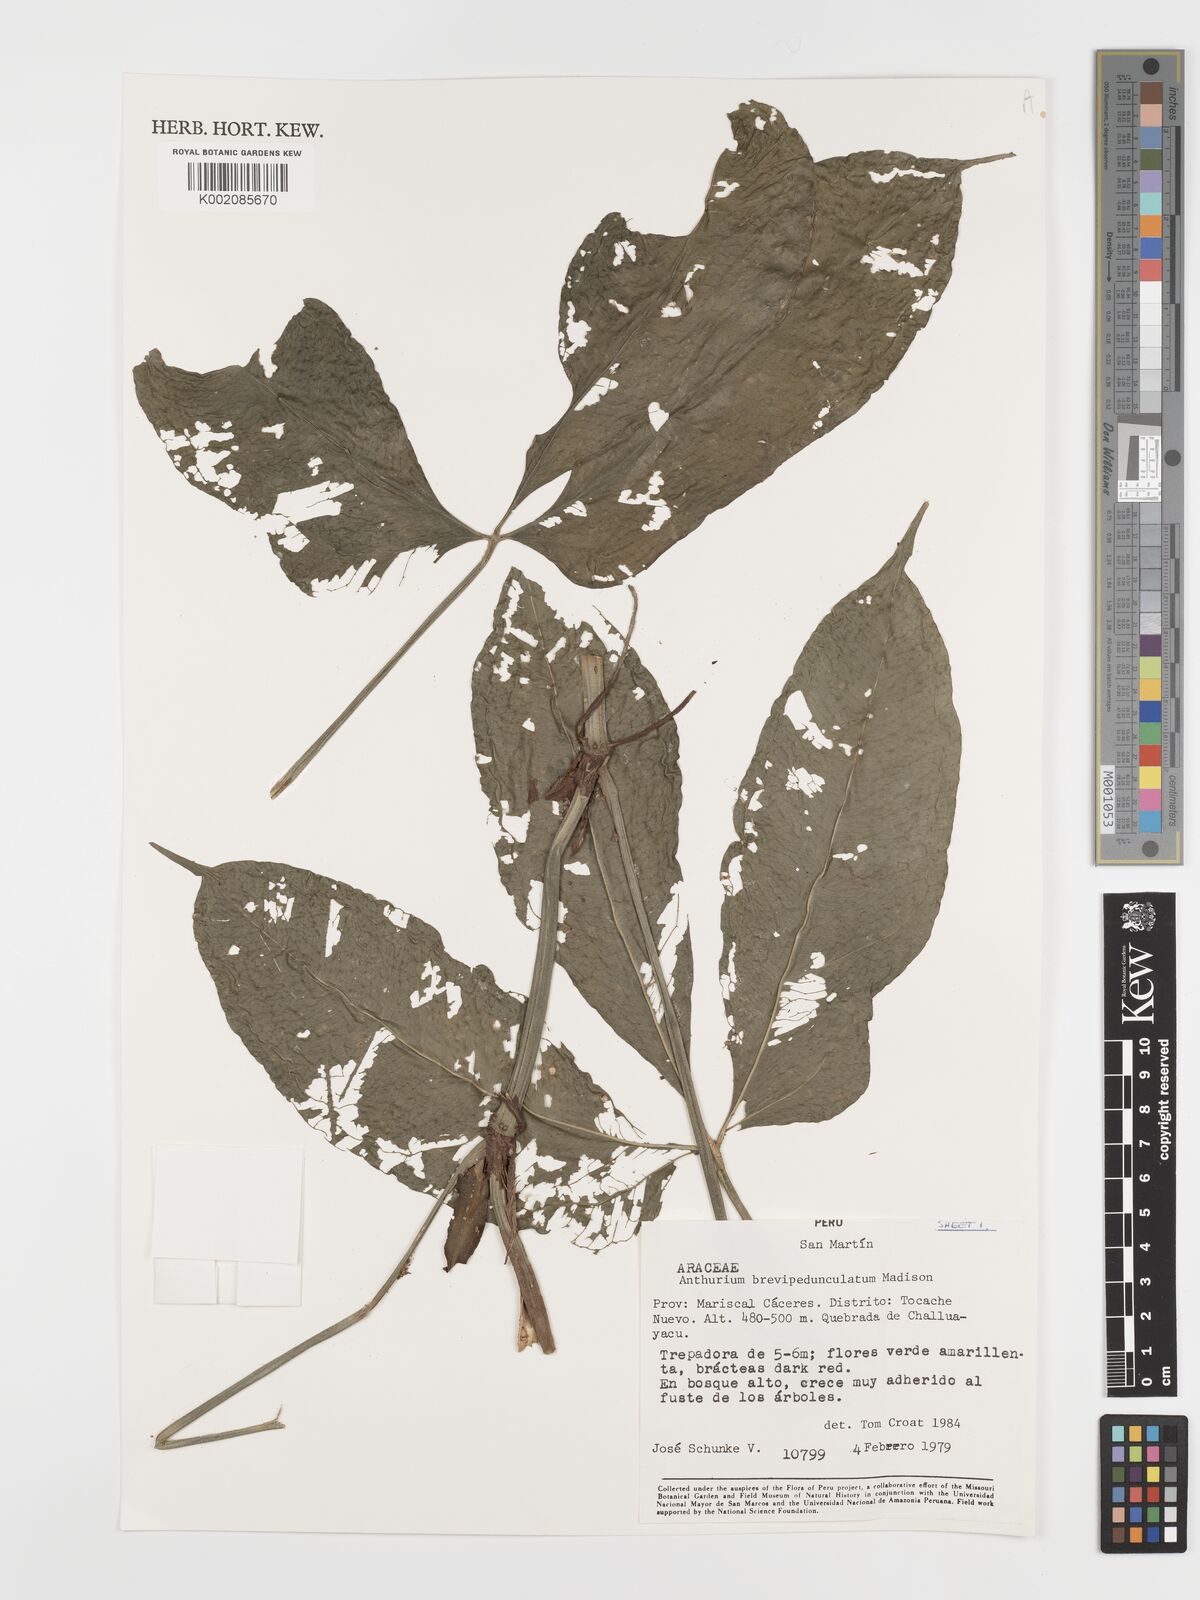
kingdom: Plantae
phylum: Tracheophyta
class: Liliopsida
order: Alismatales
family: Araceae
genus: Anthurium
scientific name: Anthurium brevipedunculatum
